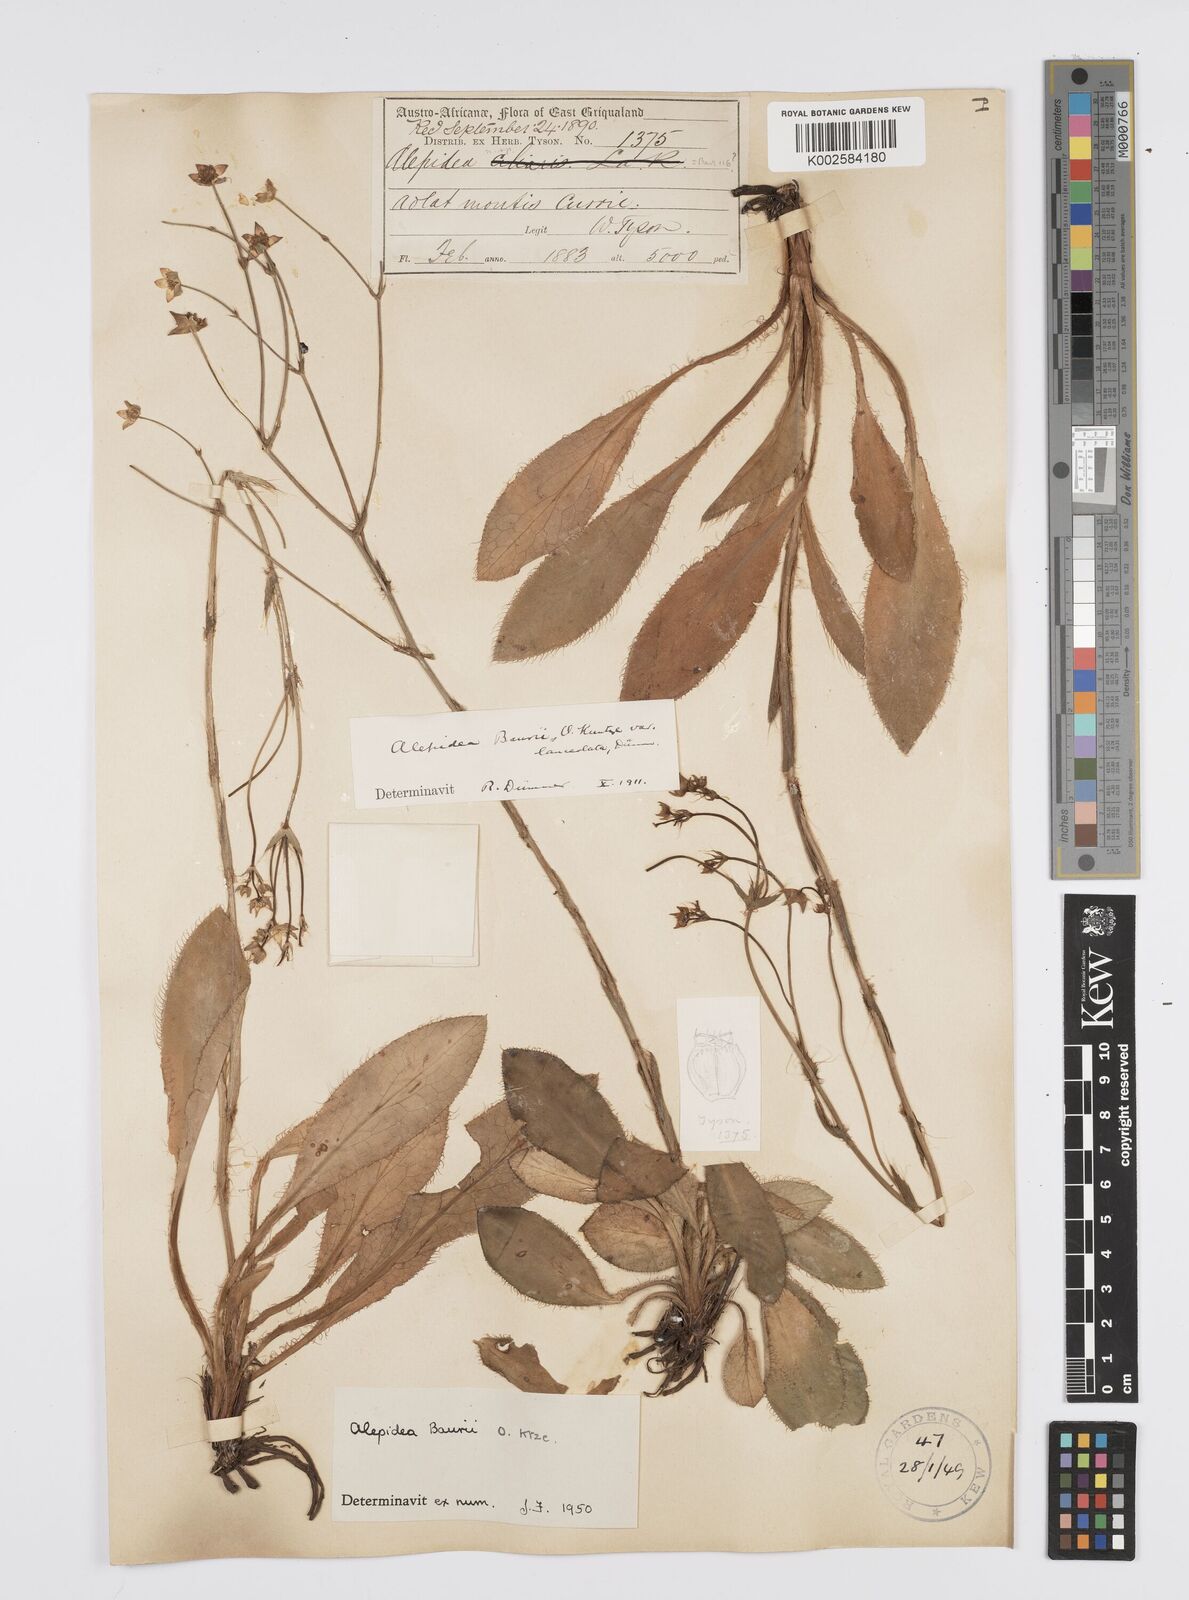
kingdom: Plantae
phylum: Tracheophyta
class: Magnoliopsida
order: Apiales
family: Apiaceae
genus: Alepidea
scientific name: Alepidea natalensis
